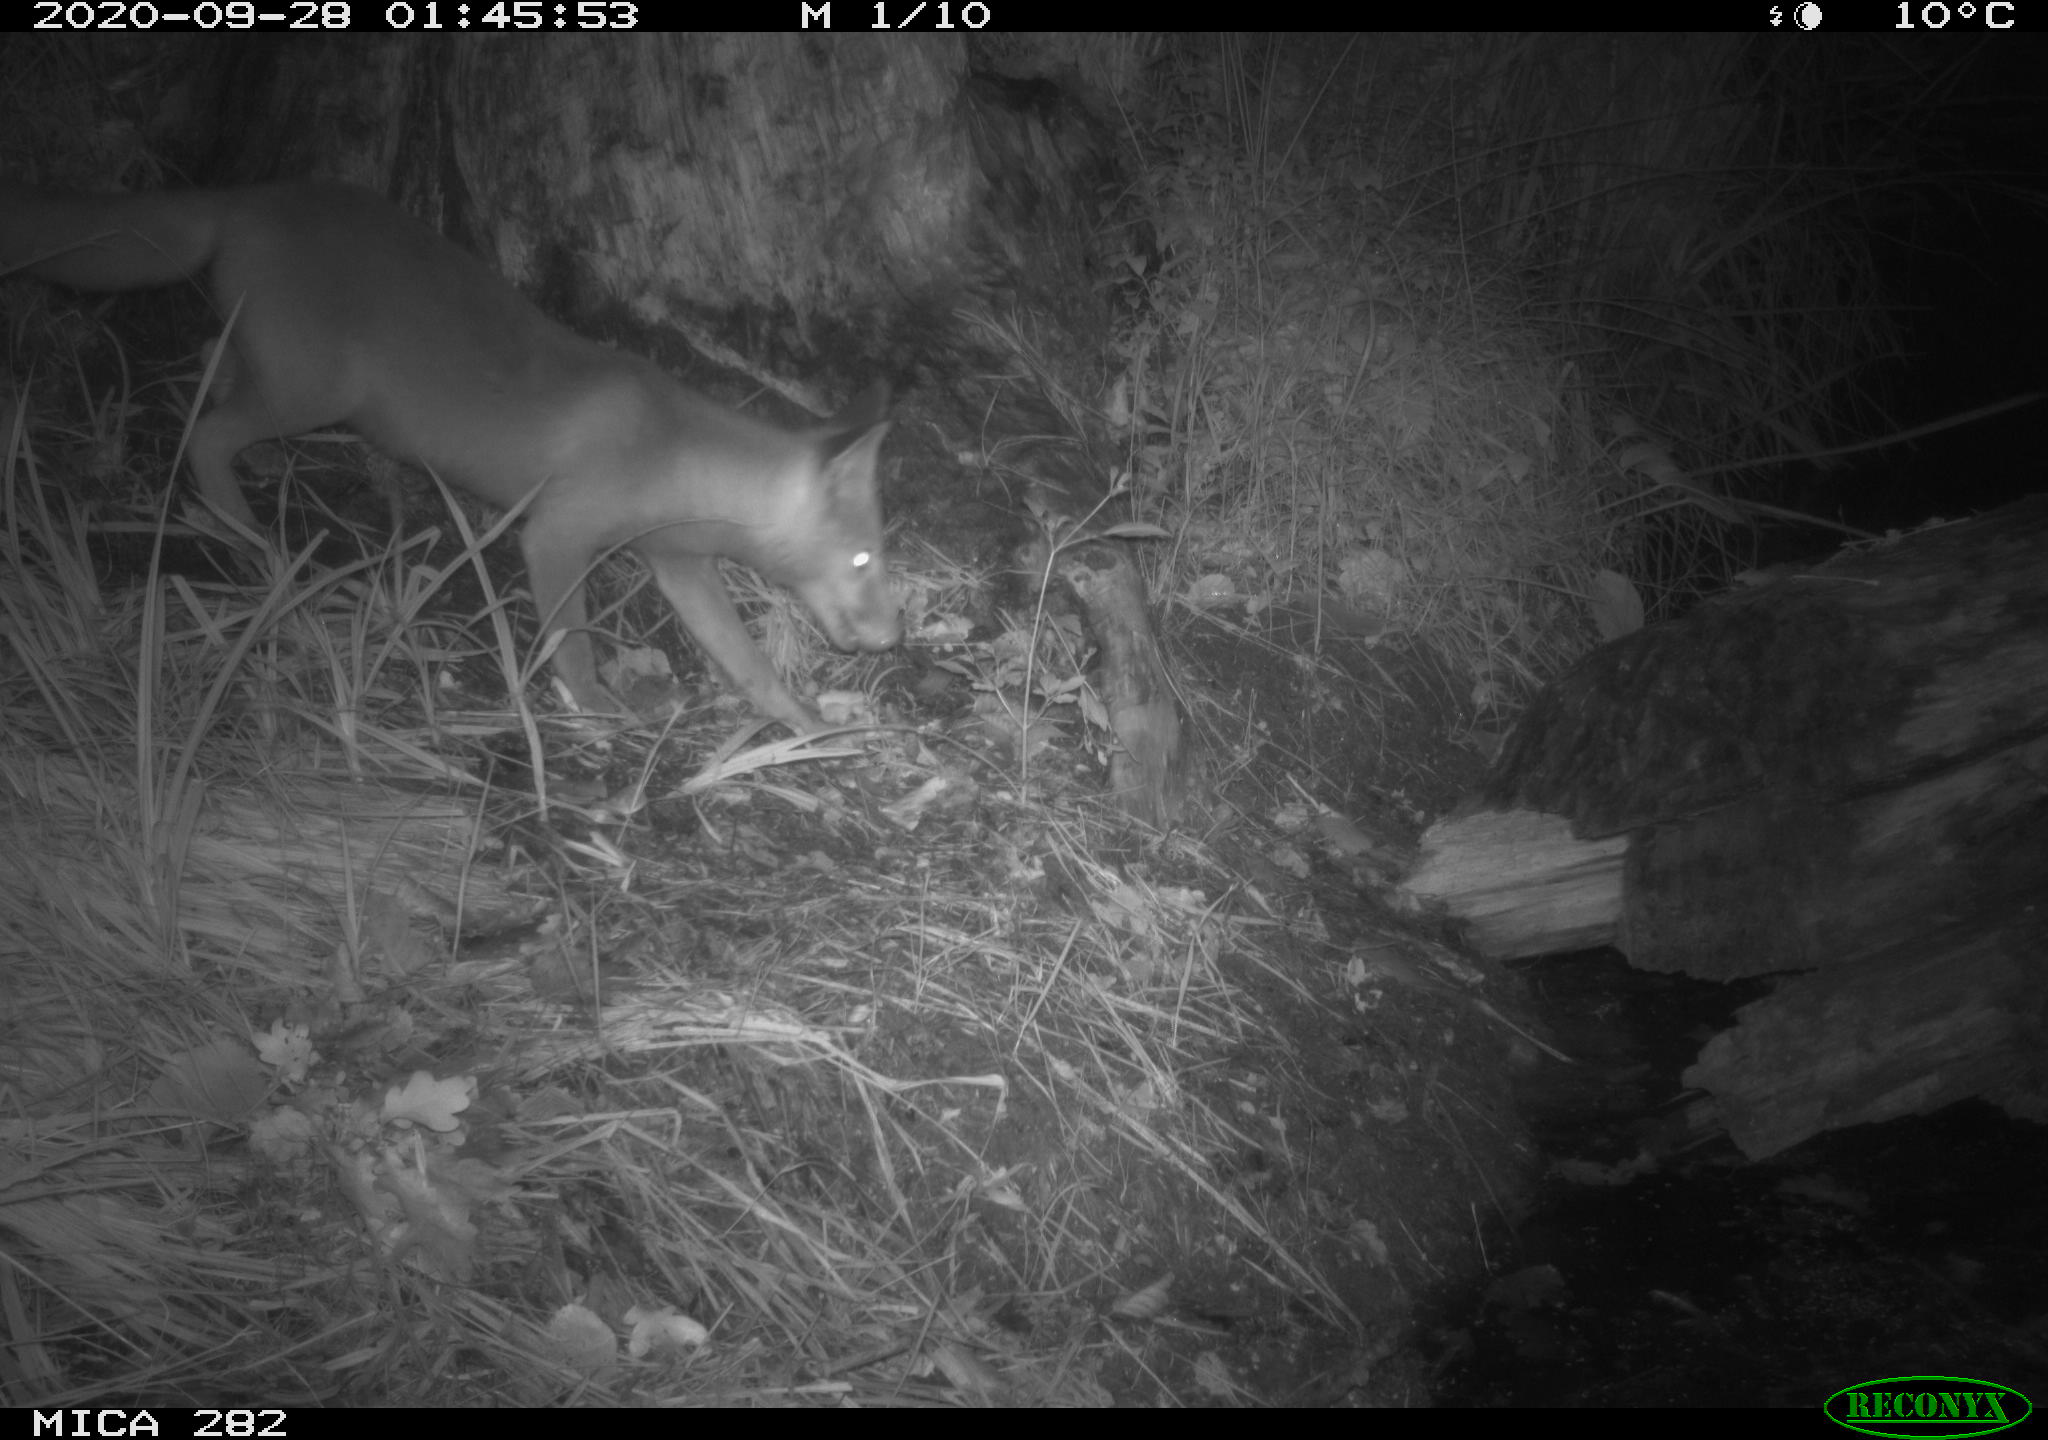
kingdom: Animalia
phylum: Chordata
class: Mammalia
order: Carnivora
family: Canidae
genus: Vulpes
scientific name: Vulpes vulpes
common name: Red fox
